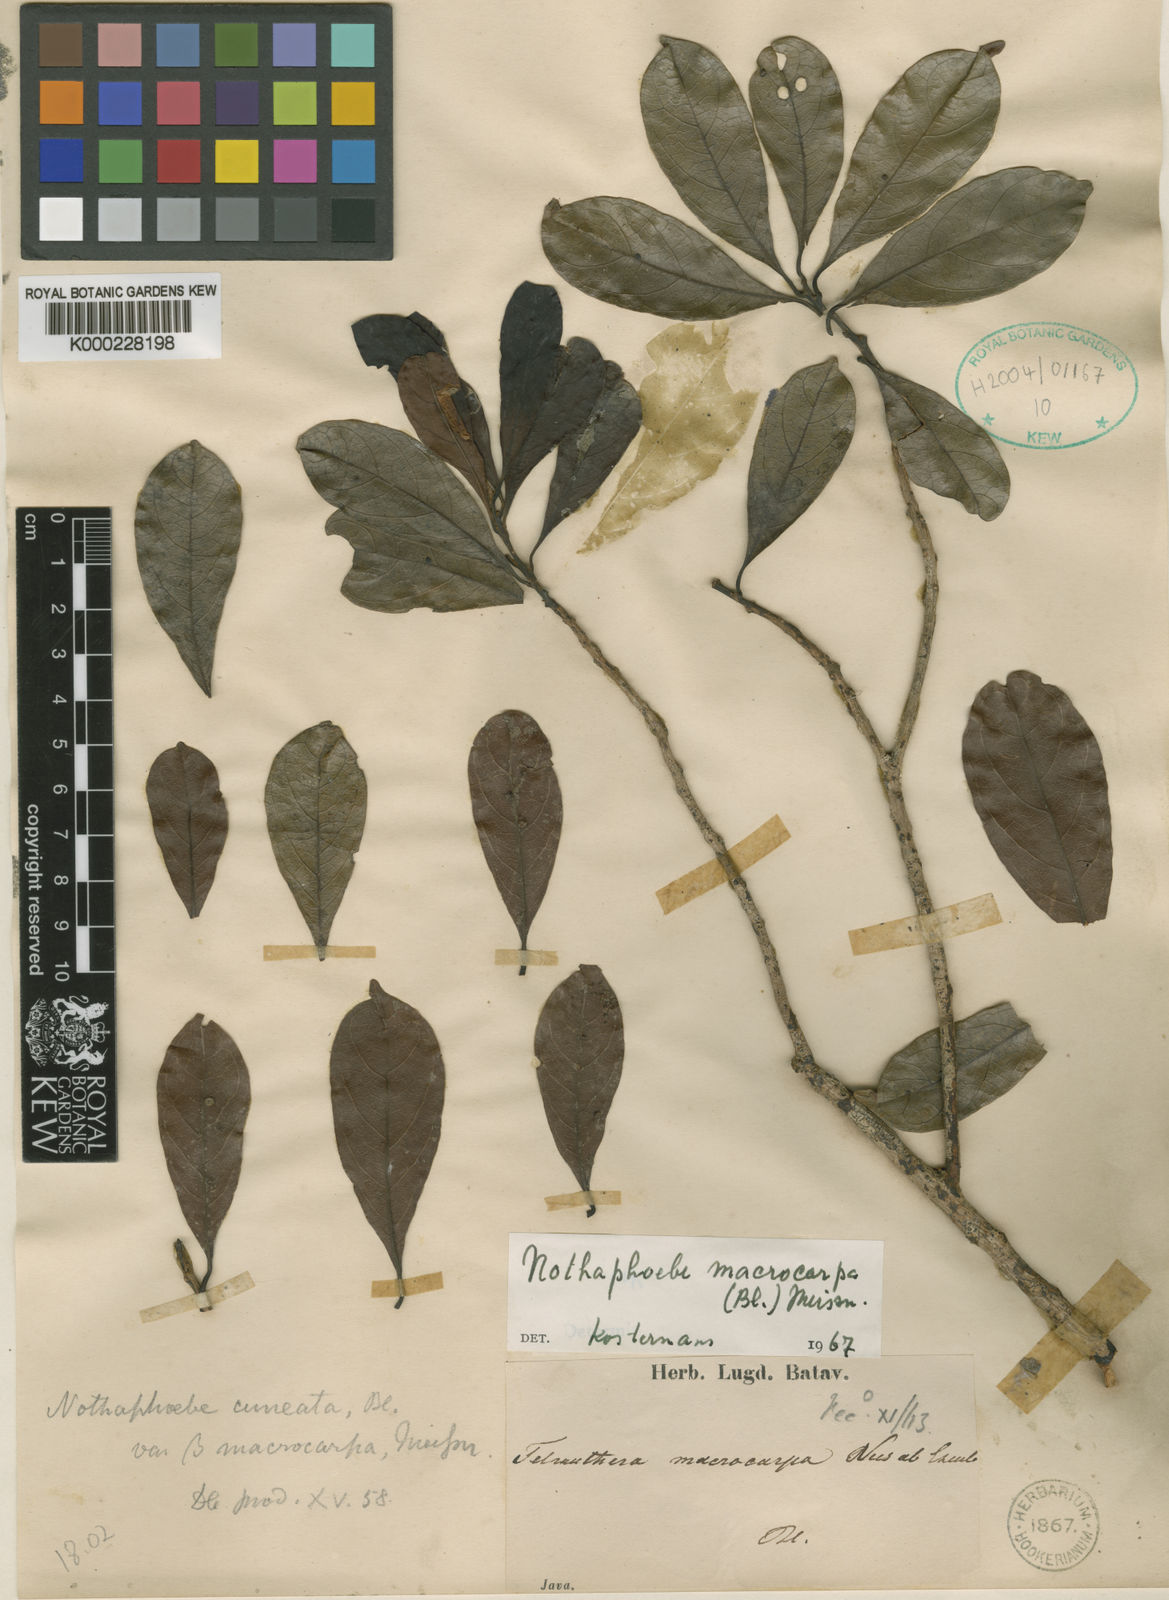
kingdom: Plantae
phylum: Tracheophyta
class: Magnoliopsida
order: Laurales
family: Lauraceae
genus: Nothaphoebe
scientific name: Nothaphoebe macrocarpa
